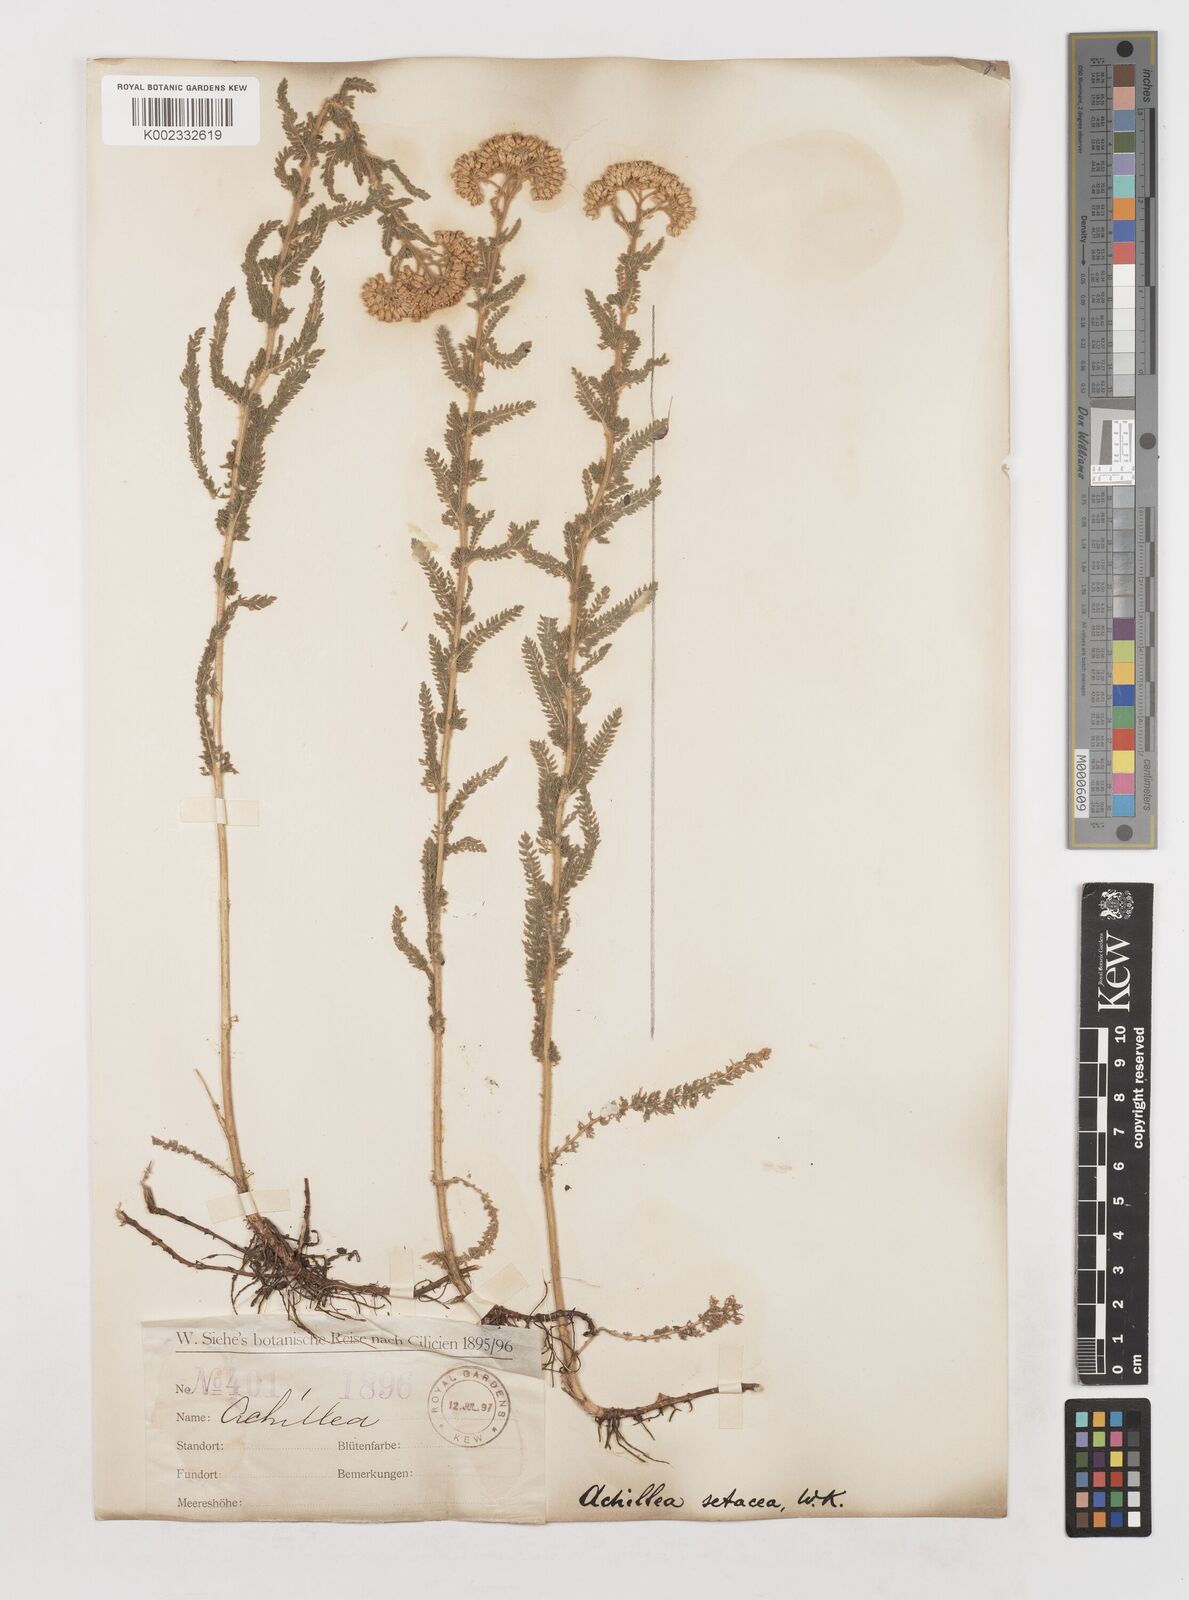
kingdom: Plantae
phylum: Tracheophyta
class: Magnoliopsida
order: Asterales
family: Asteraceae
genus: Achillea
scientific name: Achillea setacea
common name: Bristly yarrow
